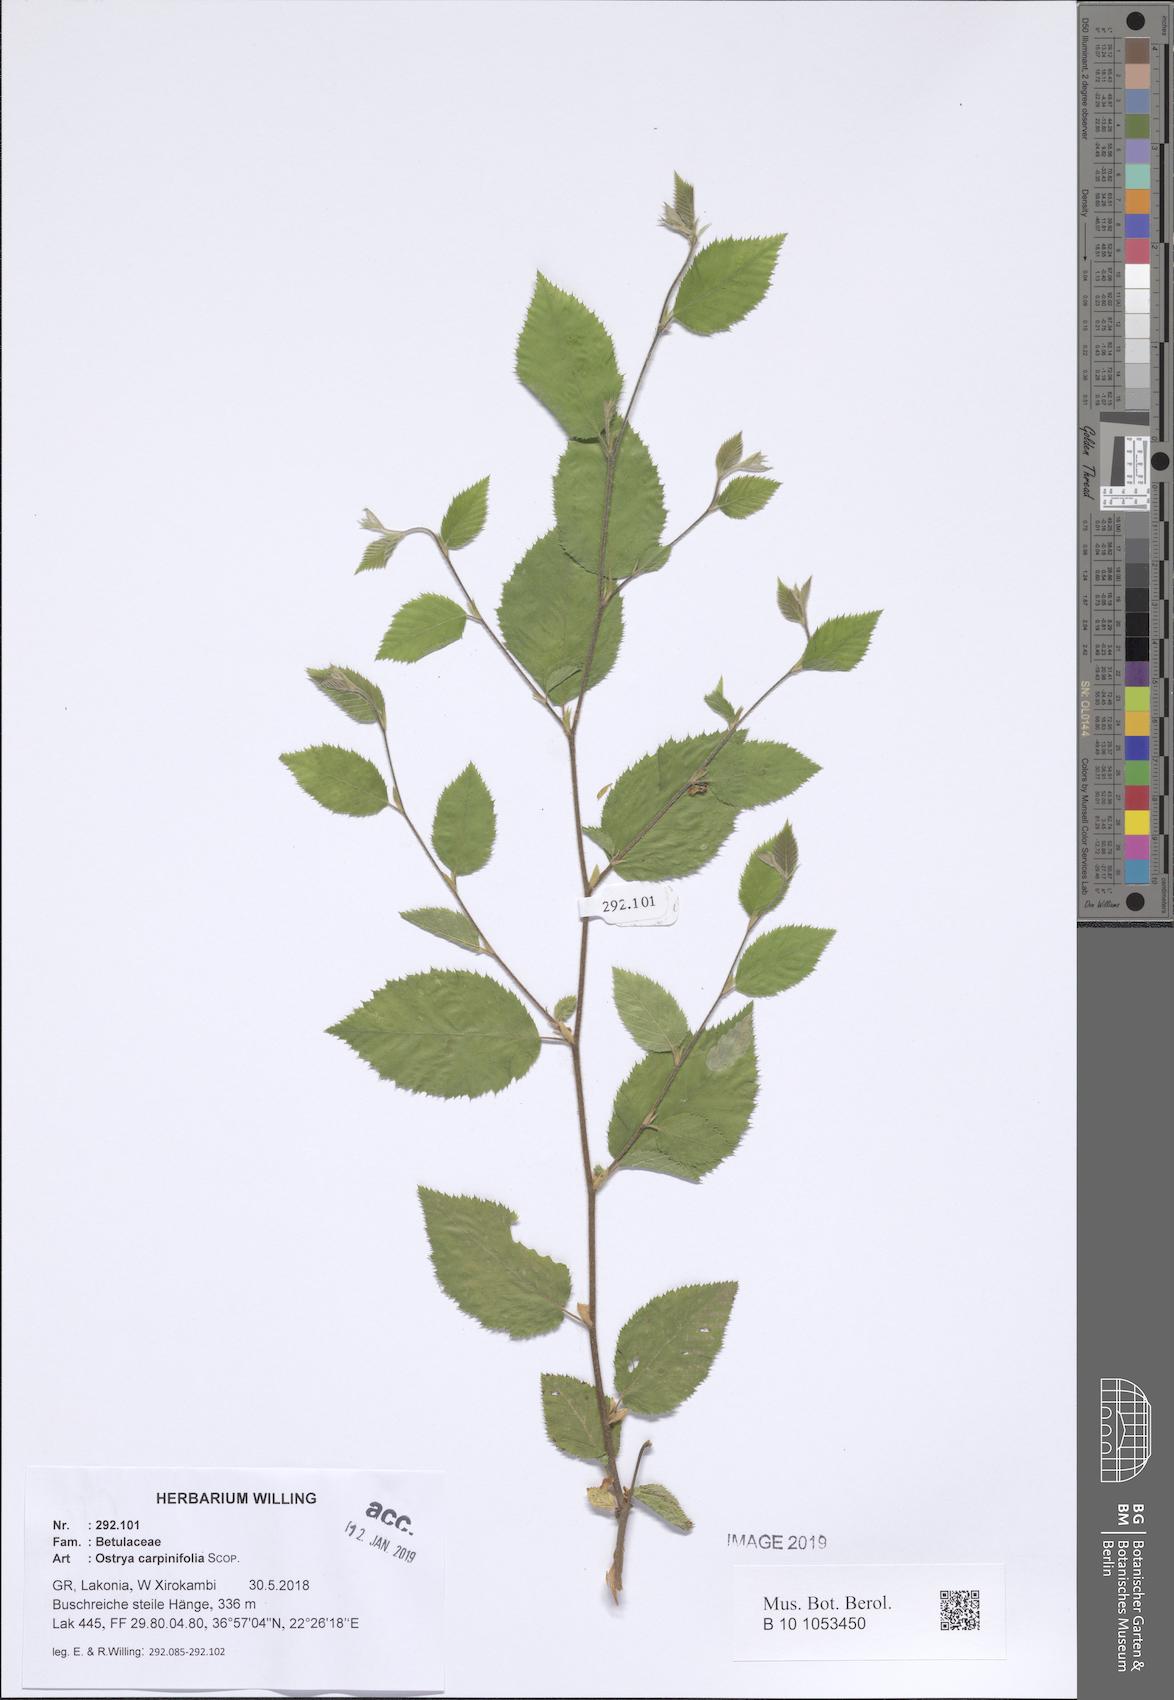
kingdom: Plantae
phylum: Tracheophyta
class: Magnoliopsida
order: Fagales
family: Betulaceae
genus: Ostrya
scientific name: Ostrya carpinifolia
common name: European hop-hornbeam
